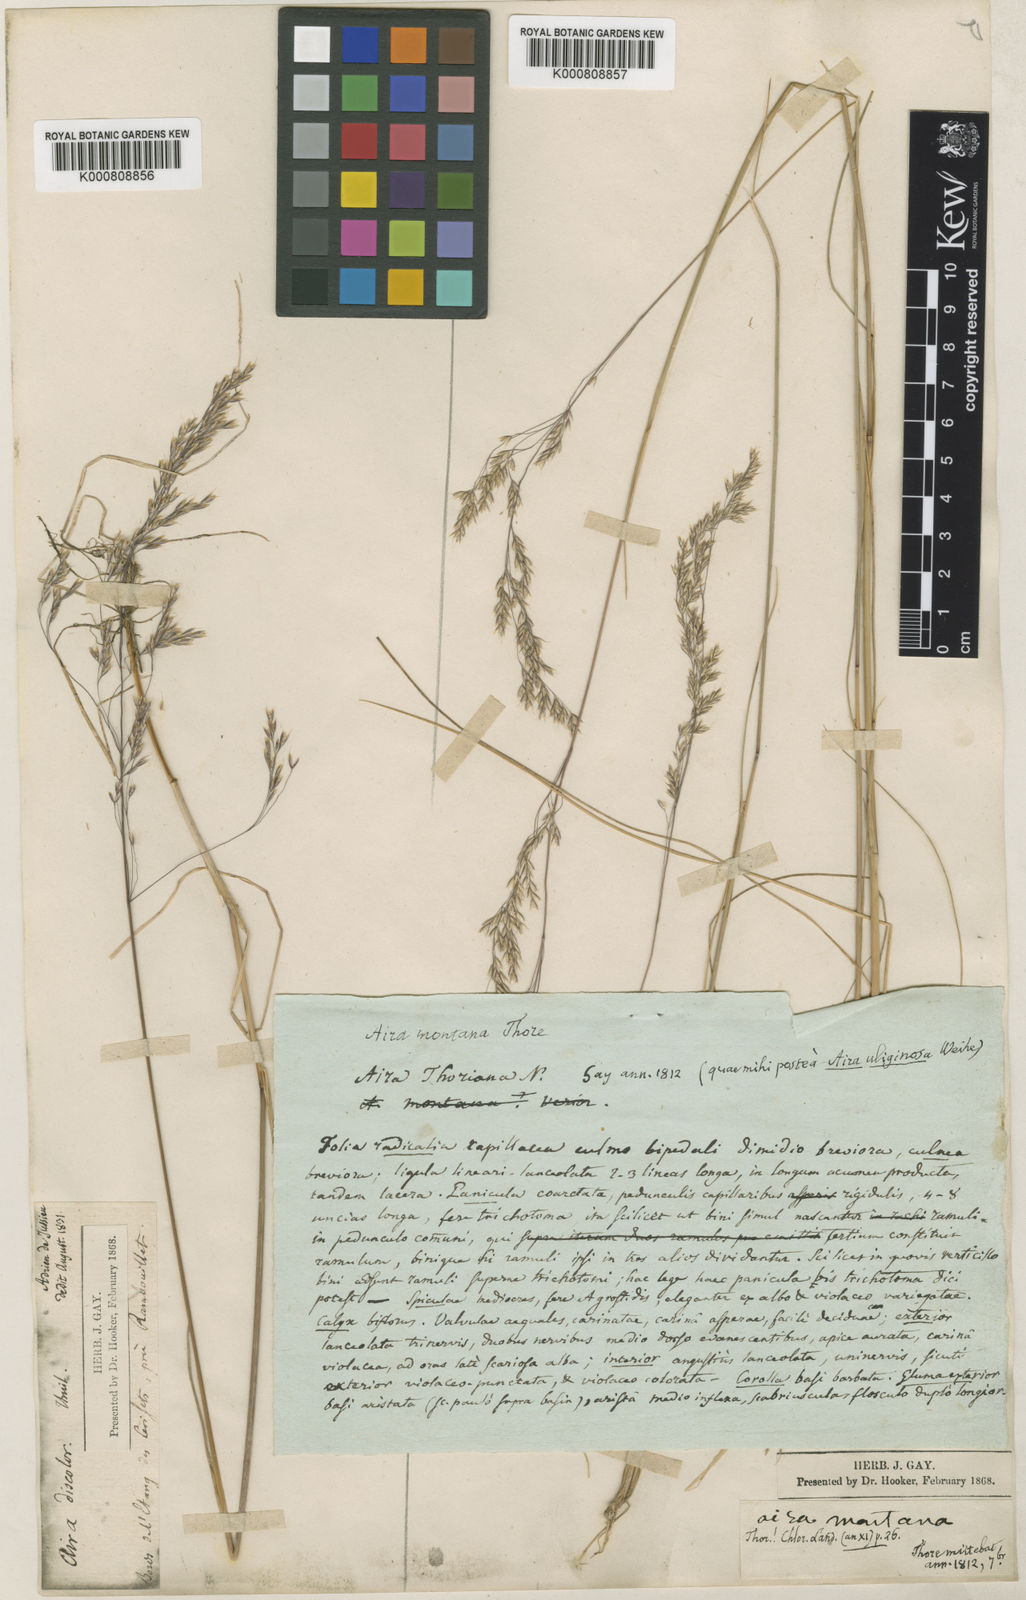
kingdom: Plantae
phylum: Tracheophyta
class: Liliopsida
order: Poales
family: Poaceae
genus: Deschampsia
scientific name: Deschampsia setacea
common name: Bog hair-grass
